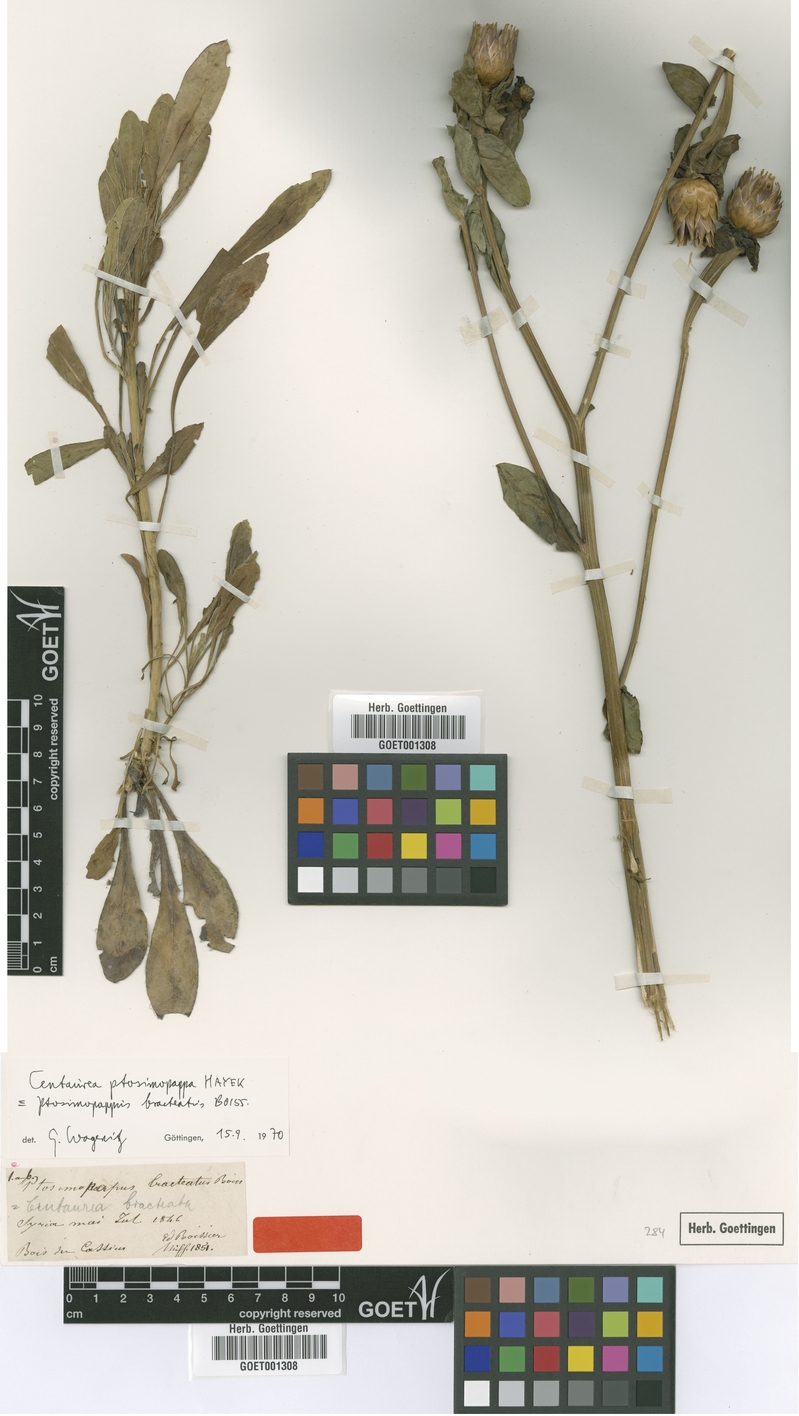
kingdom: Plantae
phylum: Tracheophyta
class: Magnoliopsida
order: Asterales
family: Asteraceae
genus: Centaurea
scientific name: Centaurea ptosimopappa
